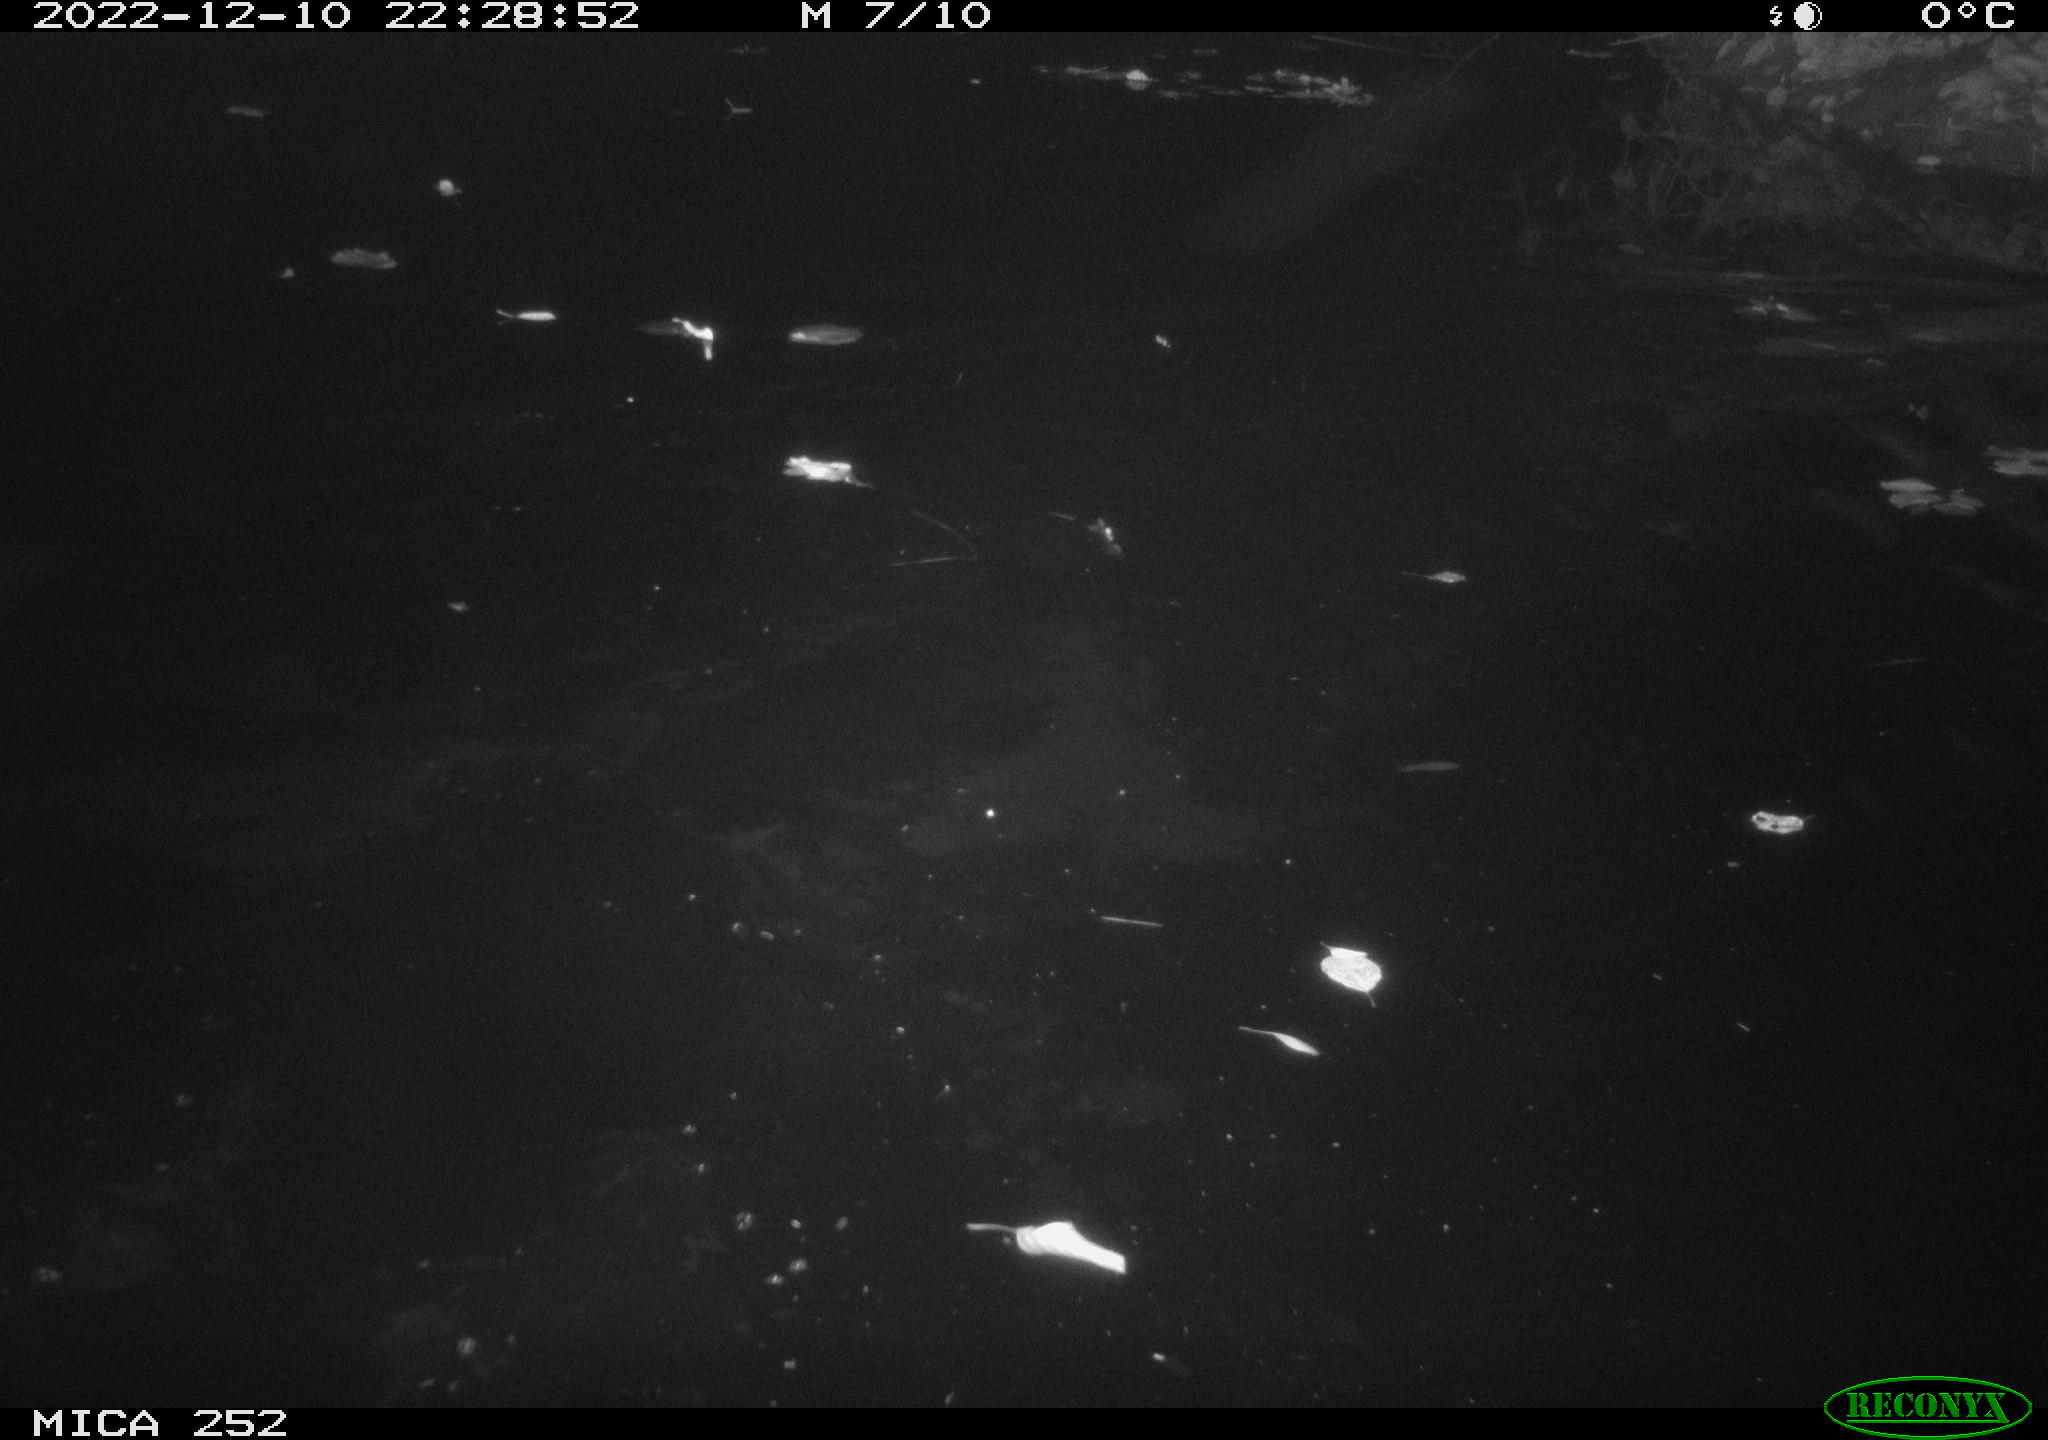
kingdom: Animalia
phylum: Chordata
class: Mammalia
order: Rodentia
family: Castoridae
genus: Castor
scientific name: Castor fiber
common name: Eurasian beaver
